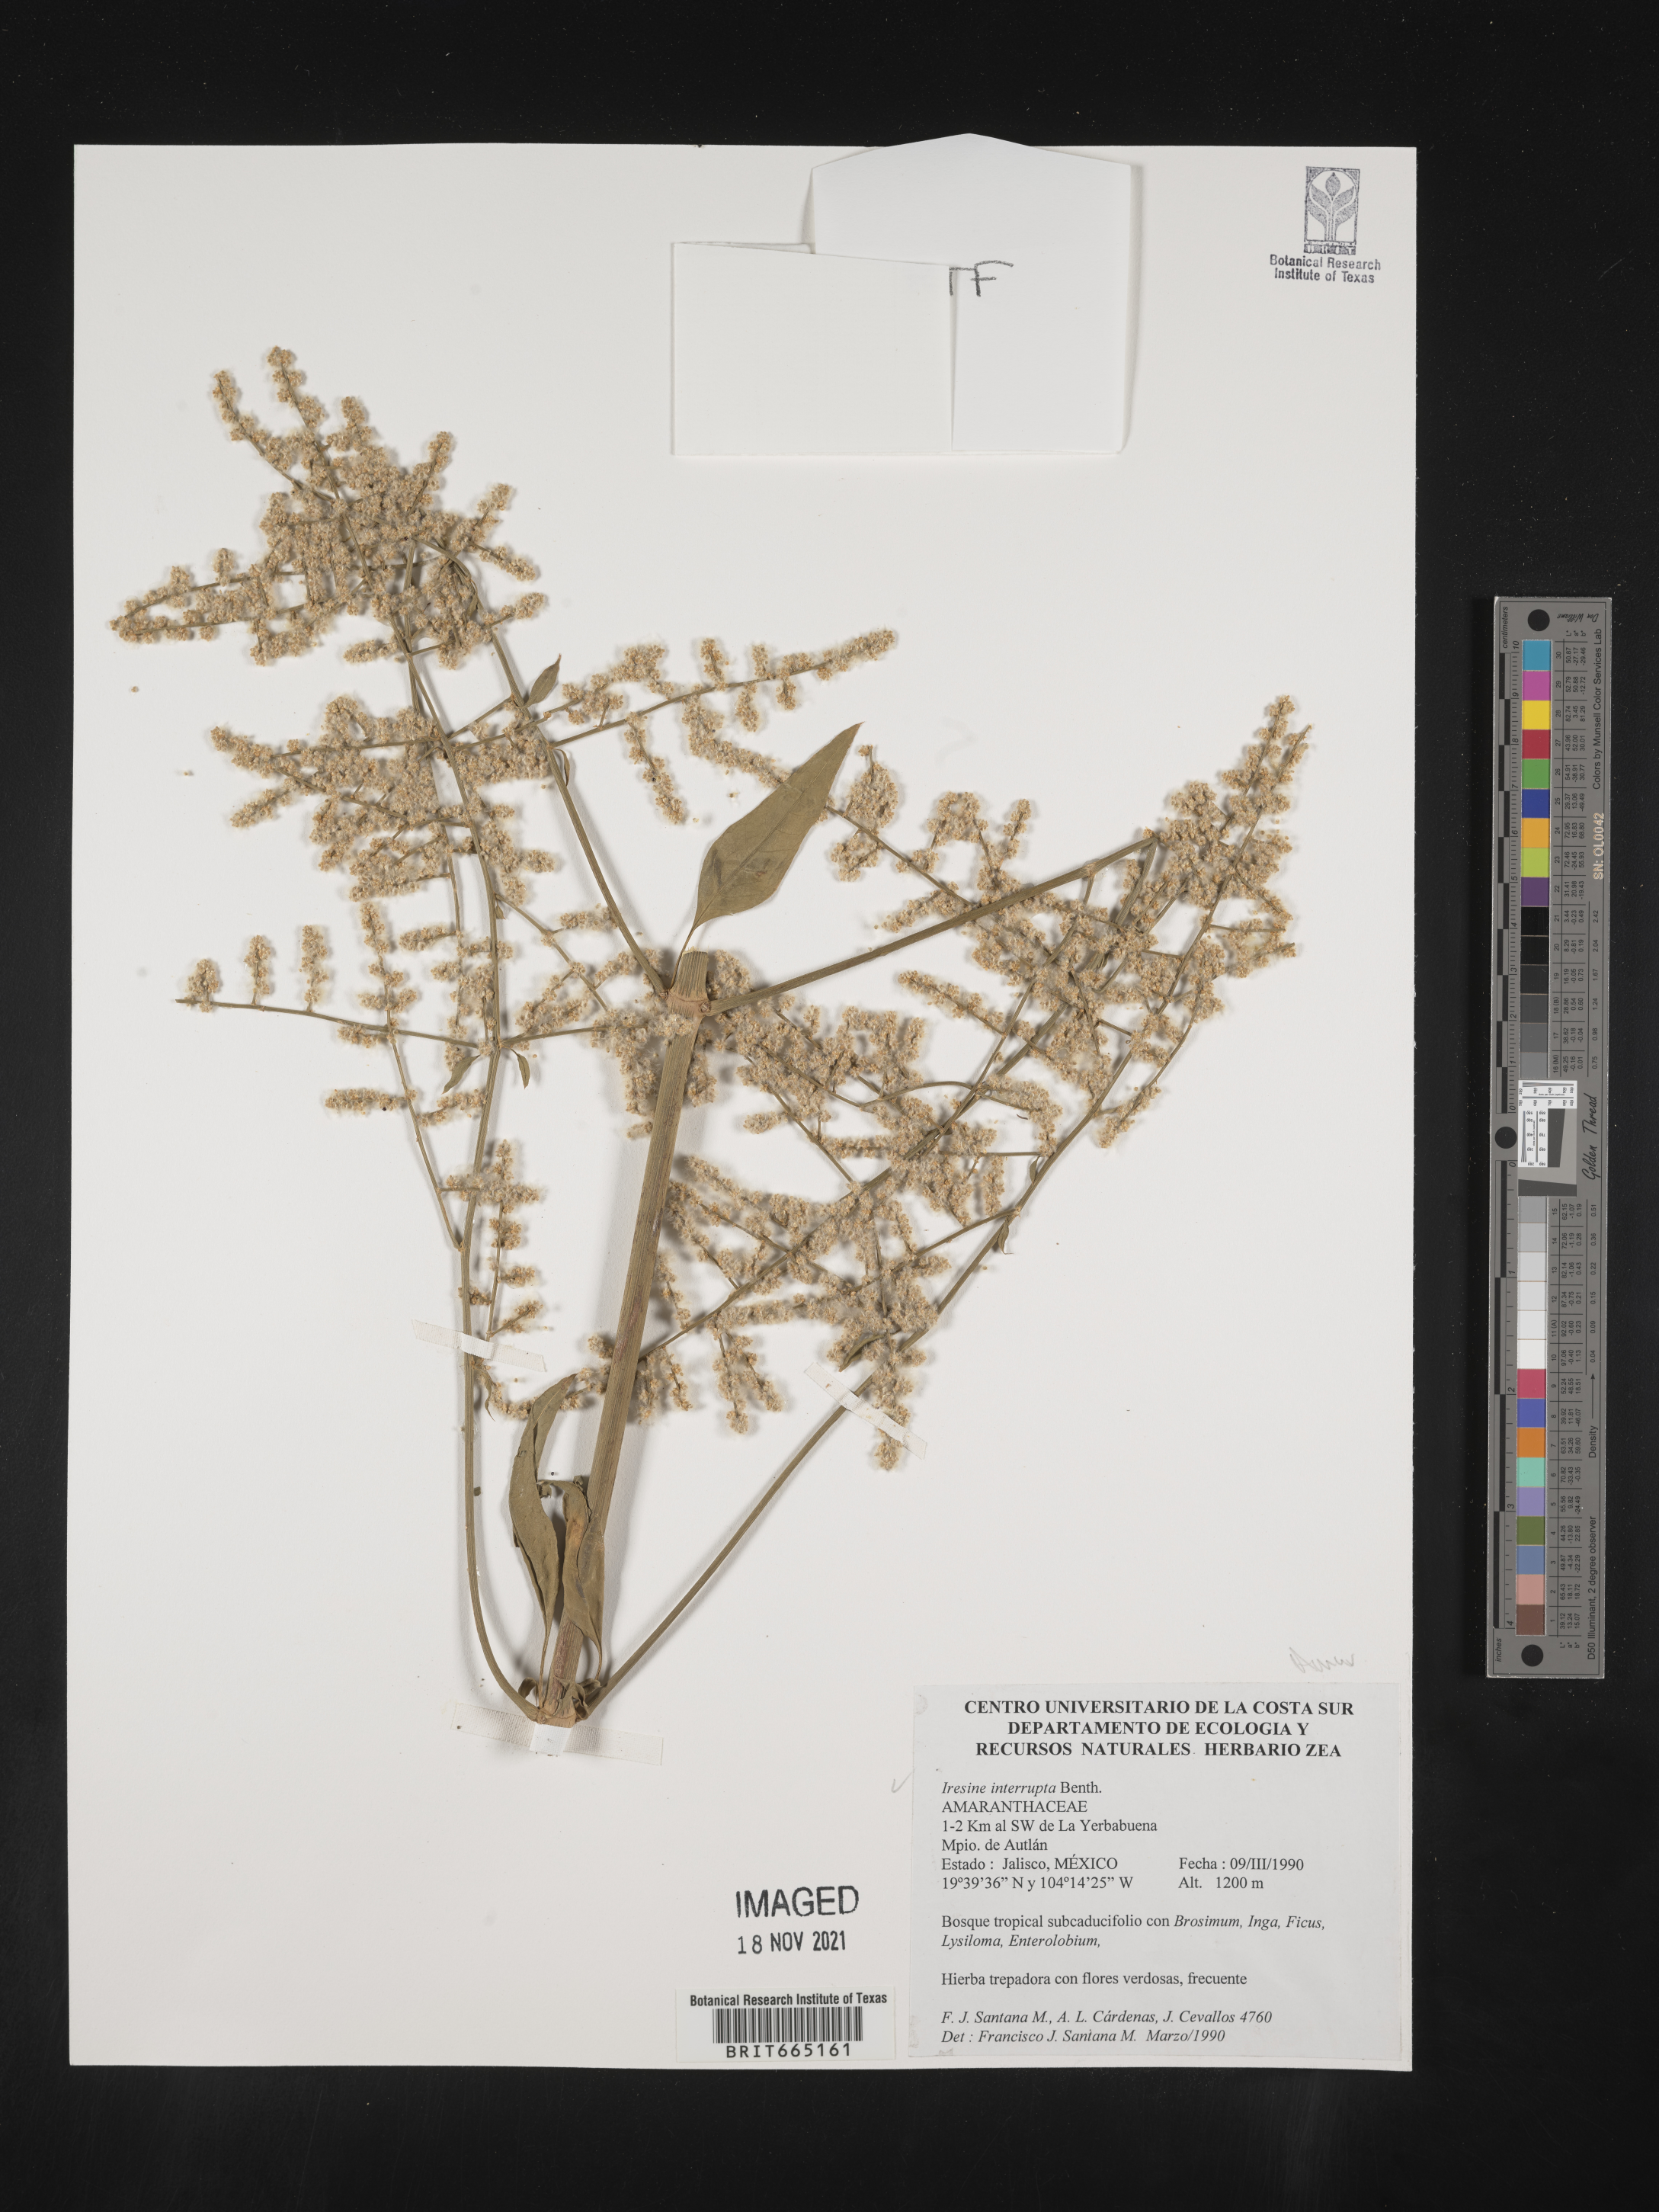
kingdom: Plantae
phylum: Tracheophyta
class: Magnoliopsida
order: Caryophyllales
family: Amaranthaceae
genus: Iresine
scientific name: Iresine
